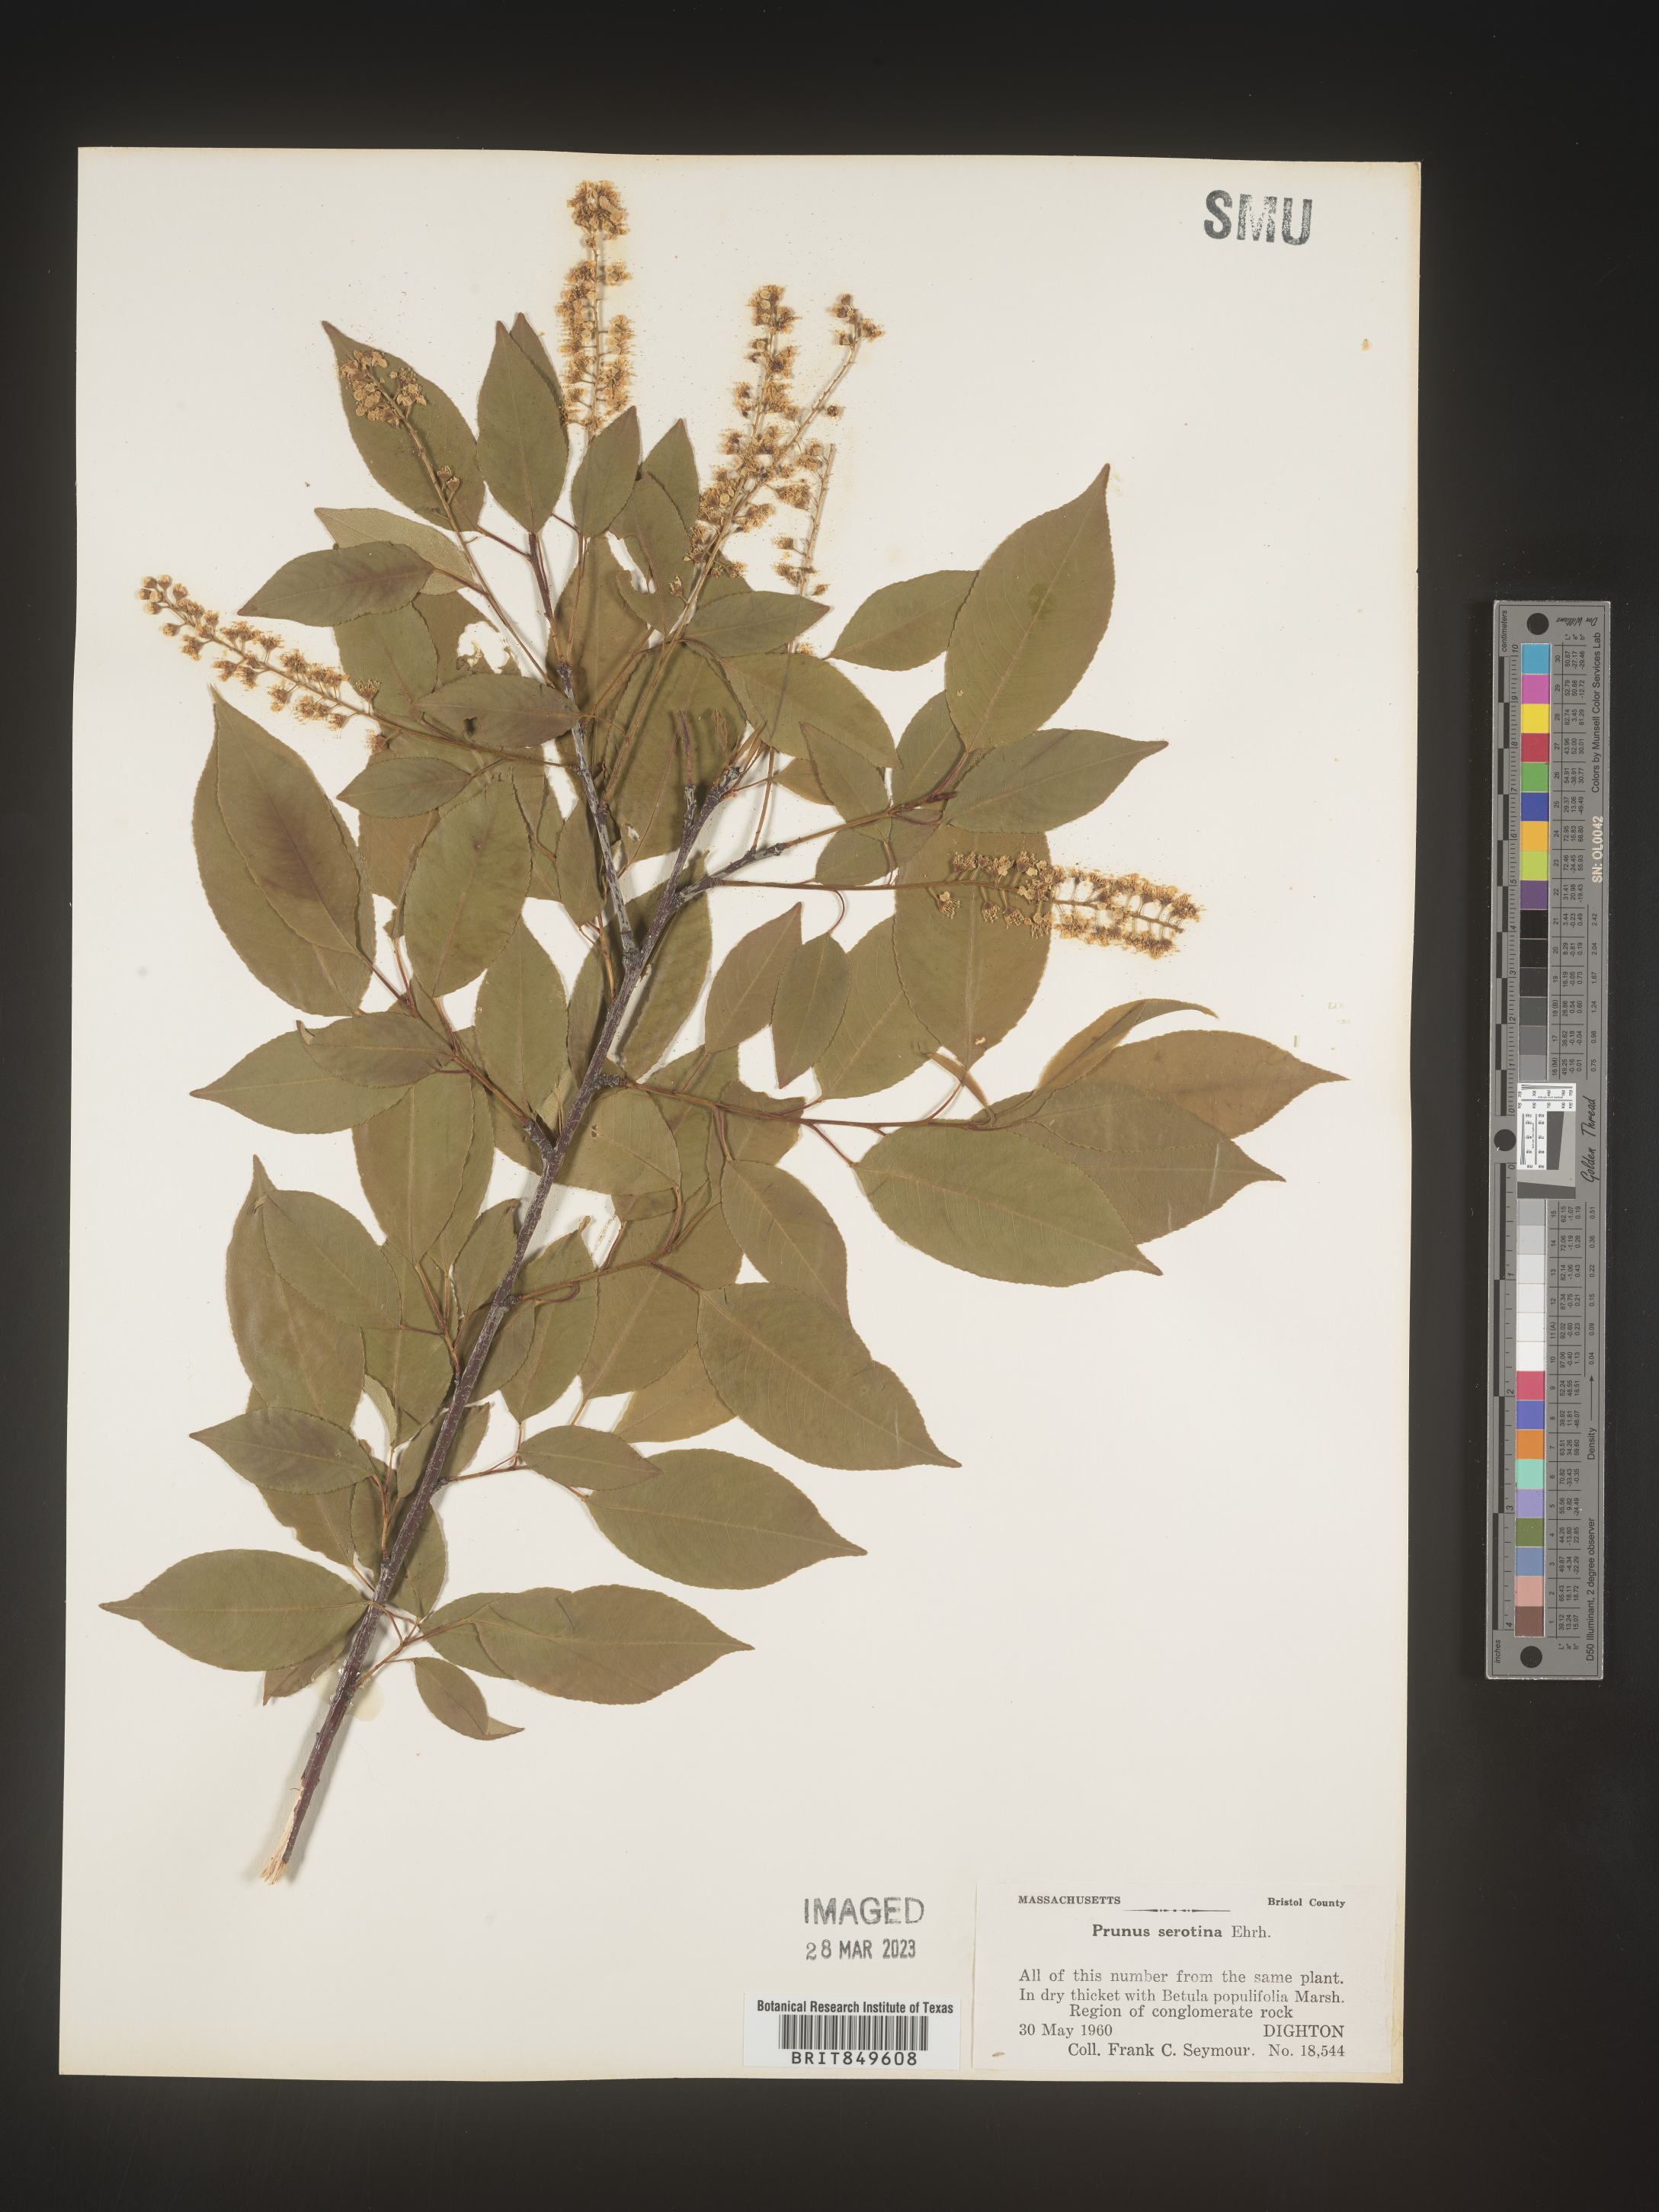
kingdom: Plantae
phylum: Tracheophyta
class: Magnoliopsida
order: Rosales
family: Rosaceae
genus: Prunus
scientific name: Prunus serotina
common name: Black cherry
